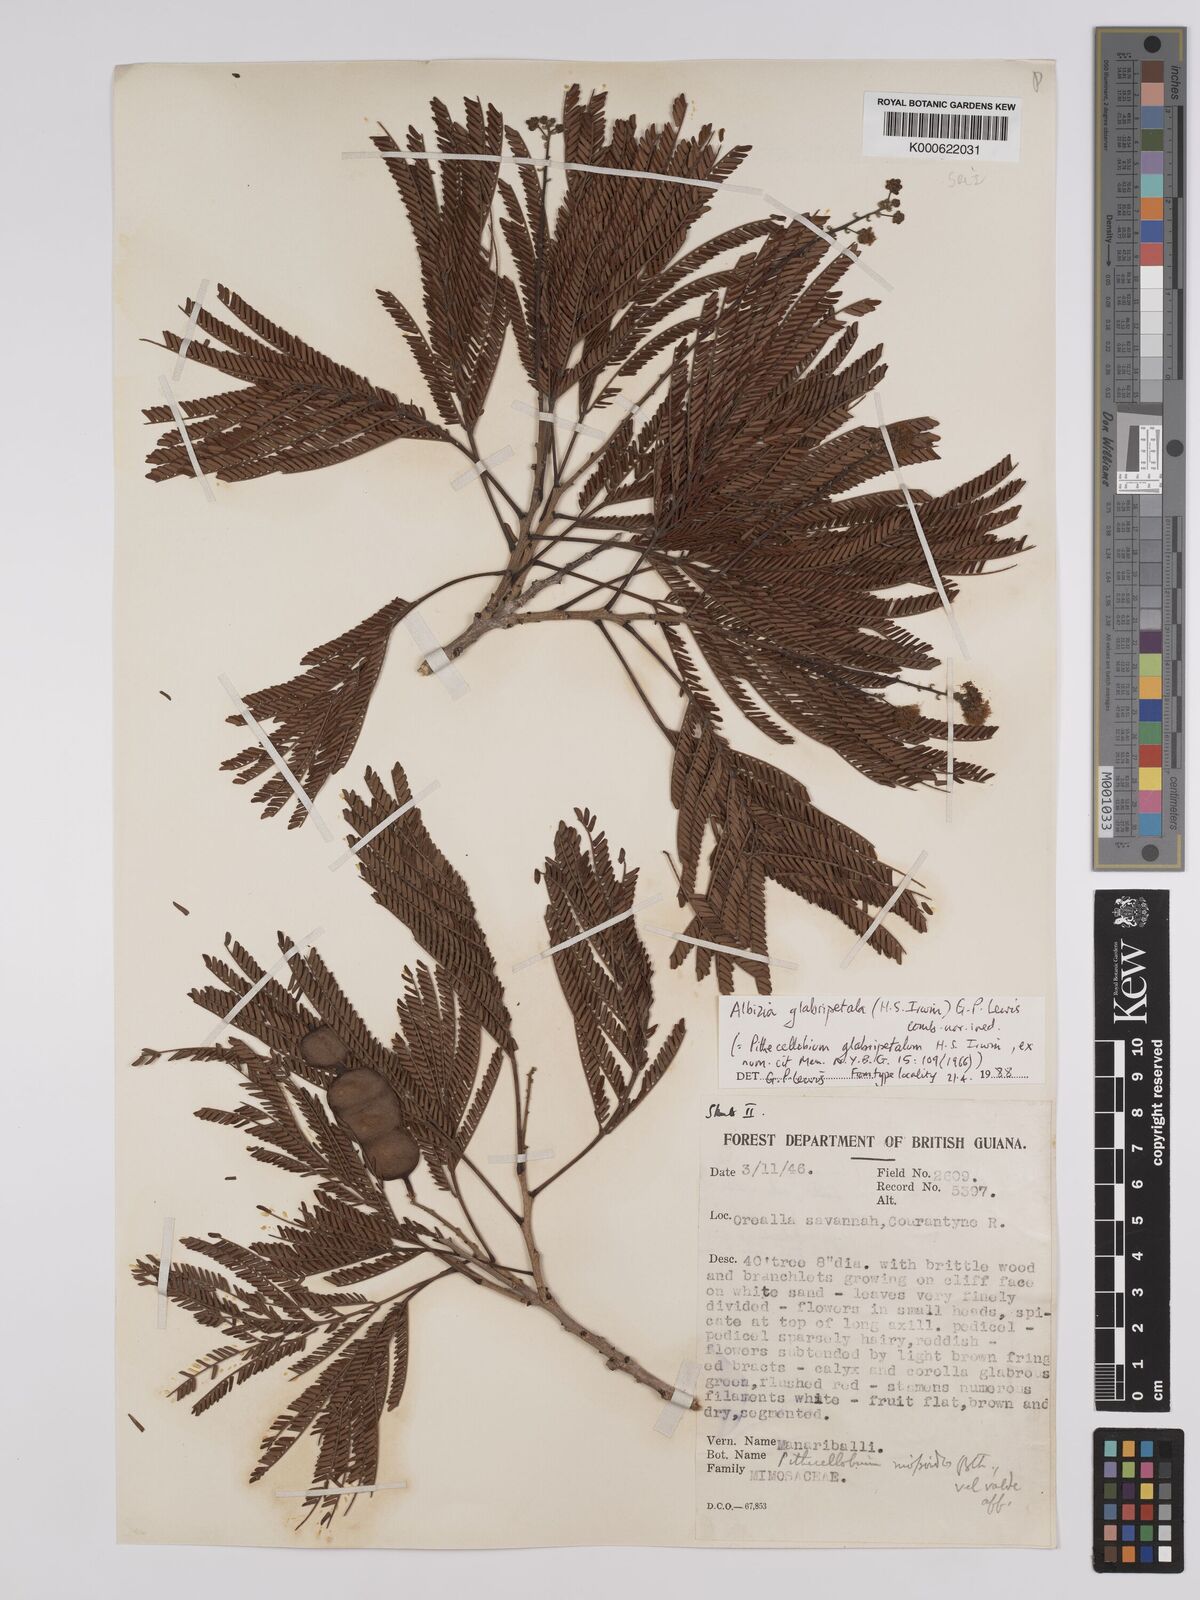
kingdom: Plantae
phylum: Tracheophyta
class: Magnoliopsida
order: Fabales
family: Fabaceae
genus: Albizia
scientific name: Albizia glabripetala
